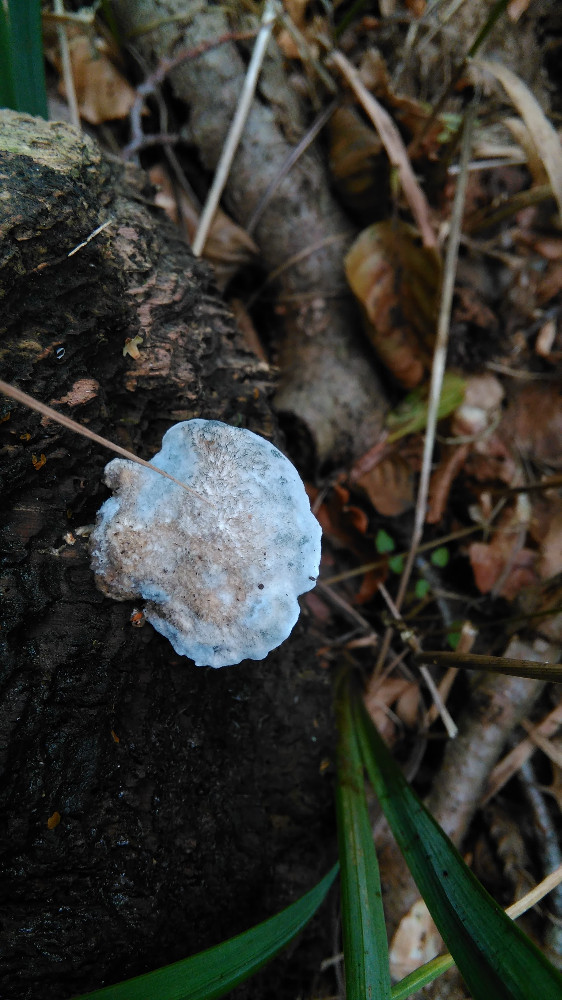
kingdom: Fungi
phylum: Basidiomycota
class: Agaricomycetes
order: Polyporales
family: Polyporaceae
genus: Cyanosporus
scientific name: Cyanosporus caesius
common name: blålig kødporesvamp
